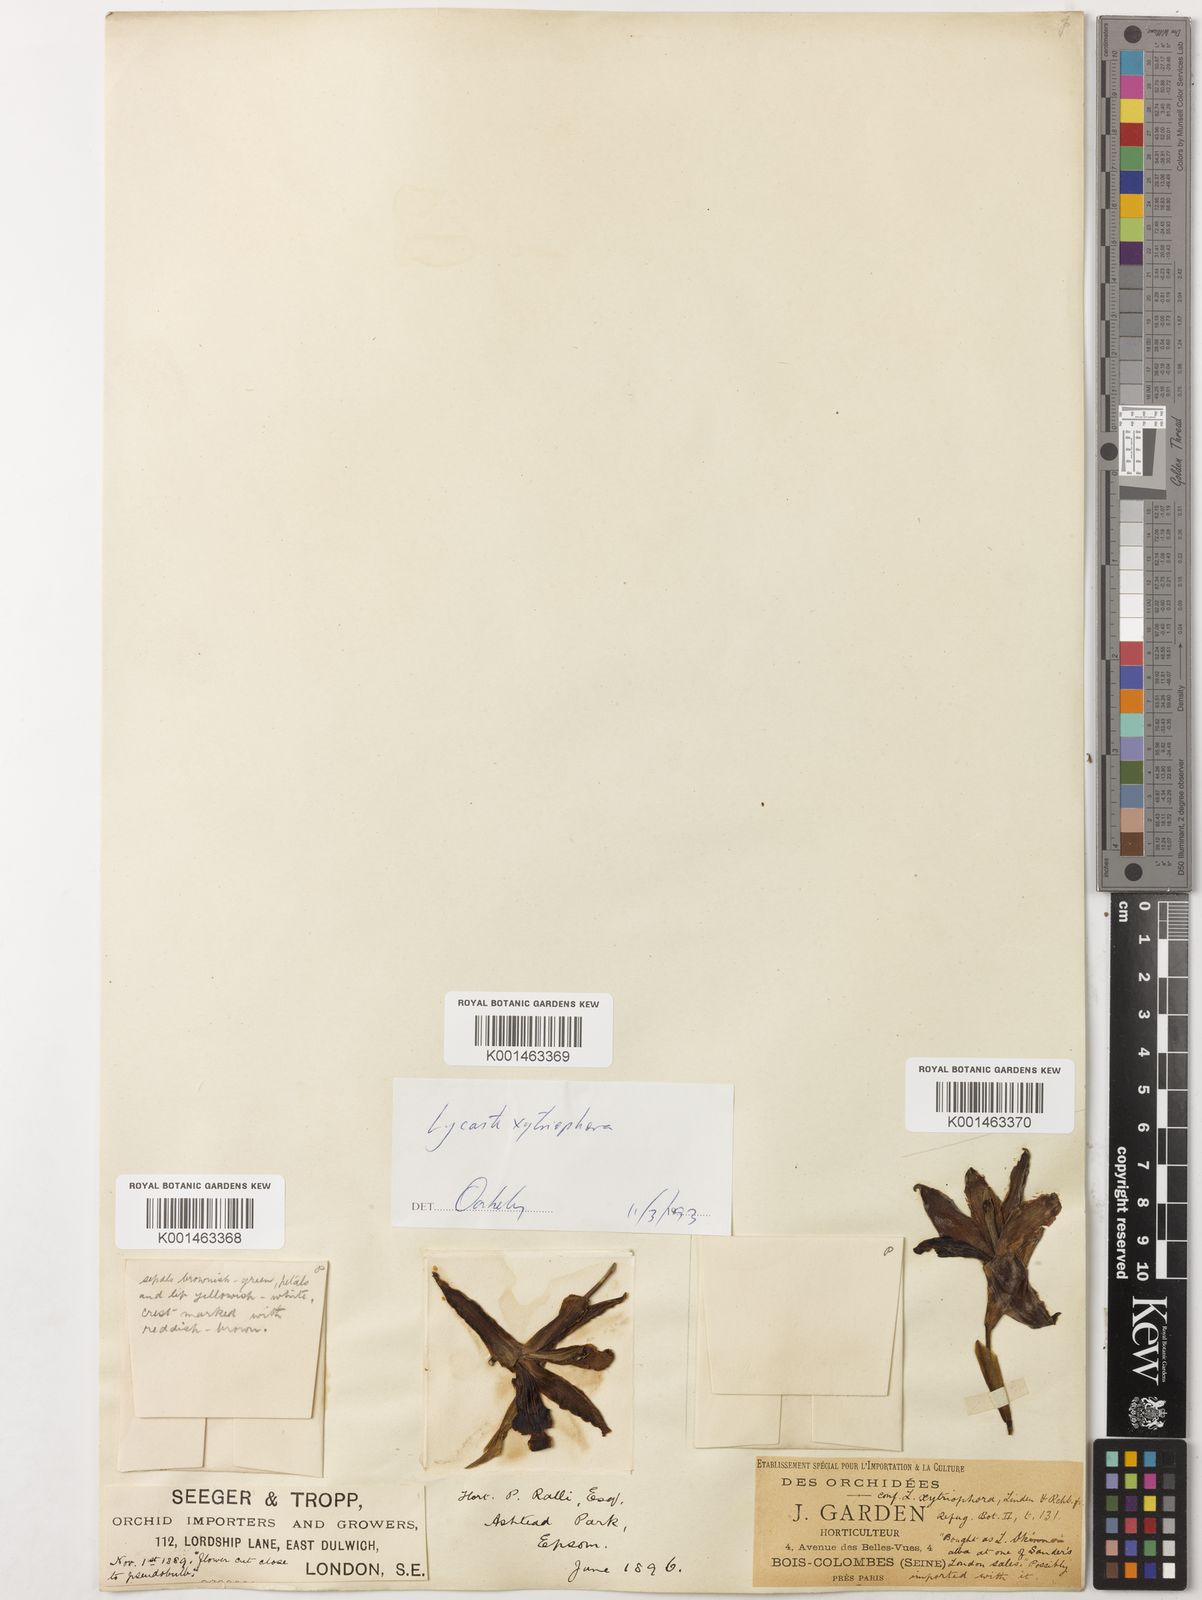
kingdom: Plantae
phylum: Tracheophyta
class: Liliopsida
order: Asparagales
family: Orchidaceae
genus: Lycaste
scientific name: Lycaste xytriophora
